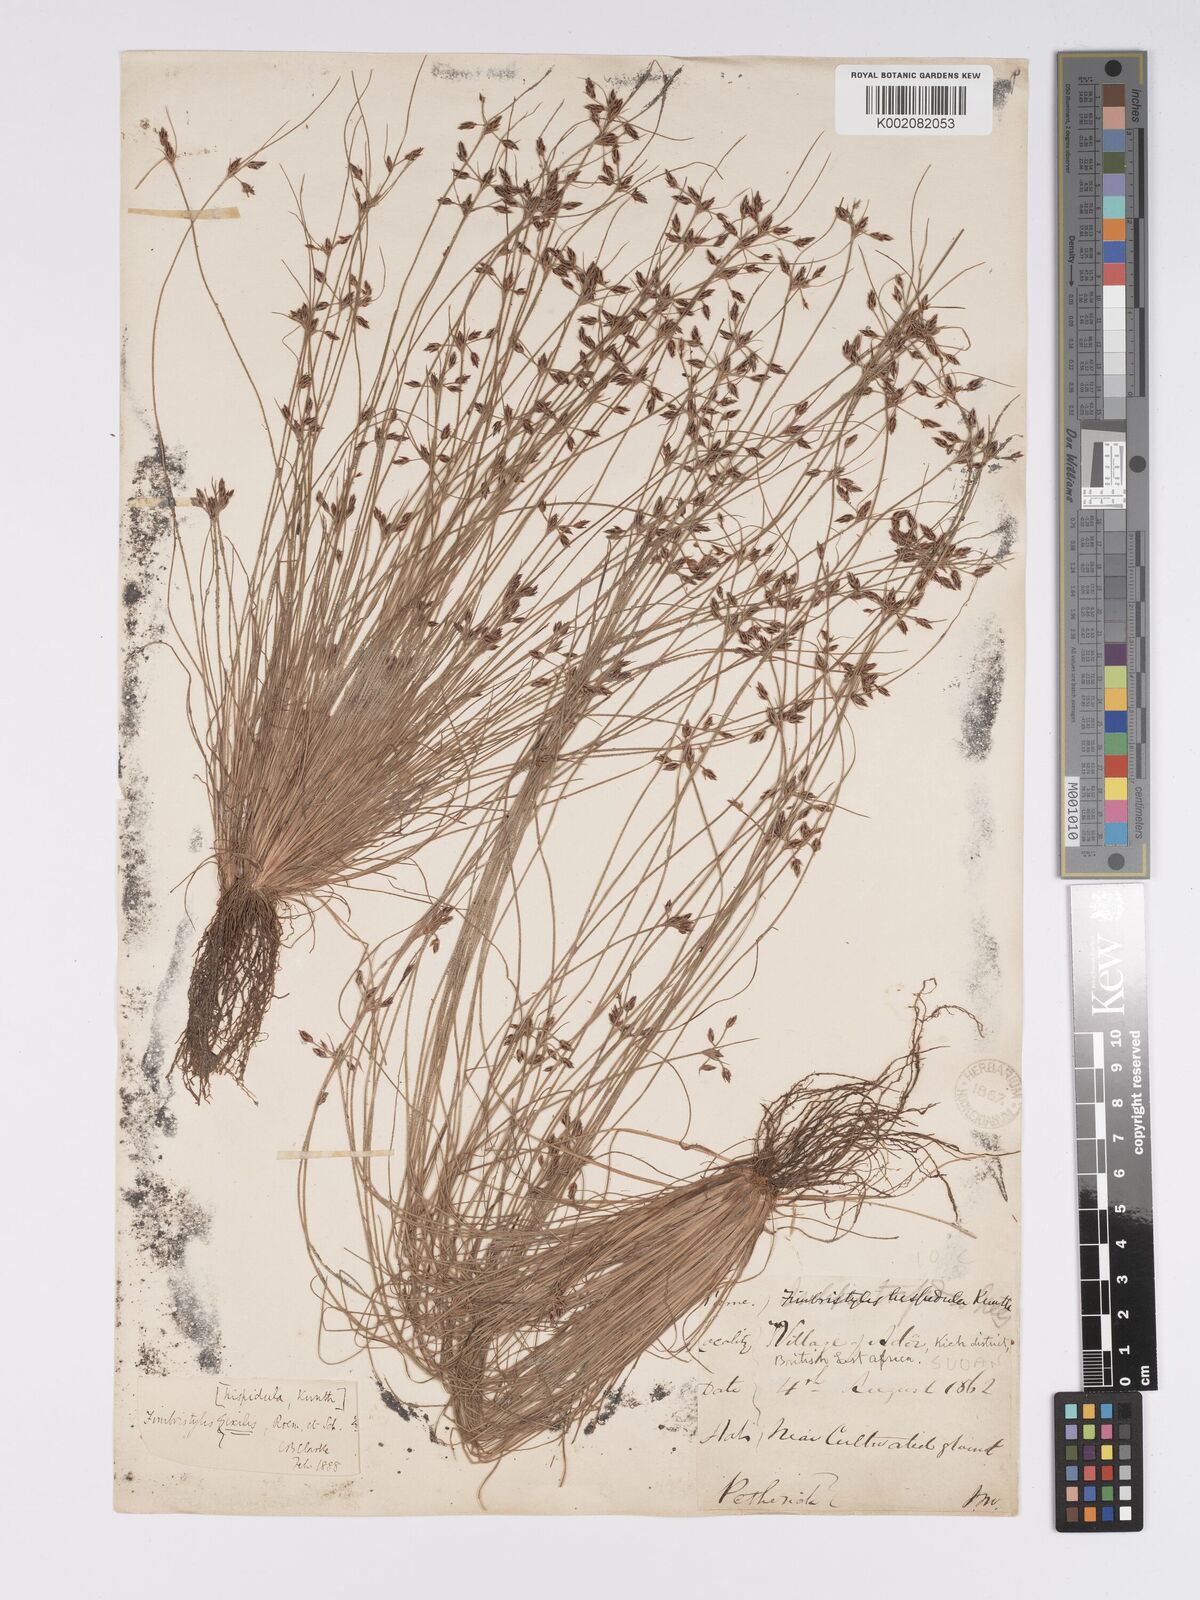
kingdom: Plantae
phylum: Tracheophyta
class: Liliopsida
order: Poales
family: Cyperaceae
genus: Bulbostylis
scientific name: Bulbostylis hispidula
